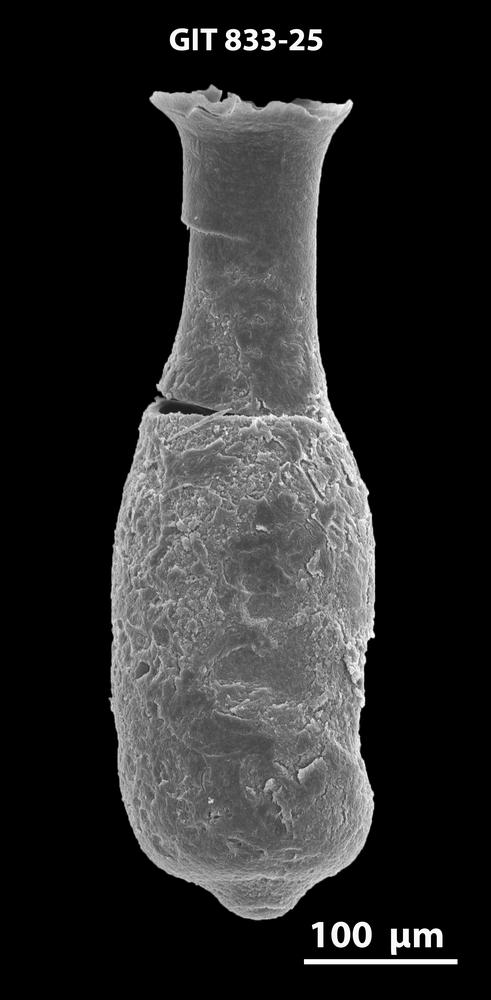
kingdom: Animalia
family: Lagenochitinidae
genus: Lagenochitina
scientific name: Lagenochitina
